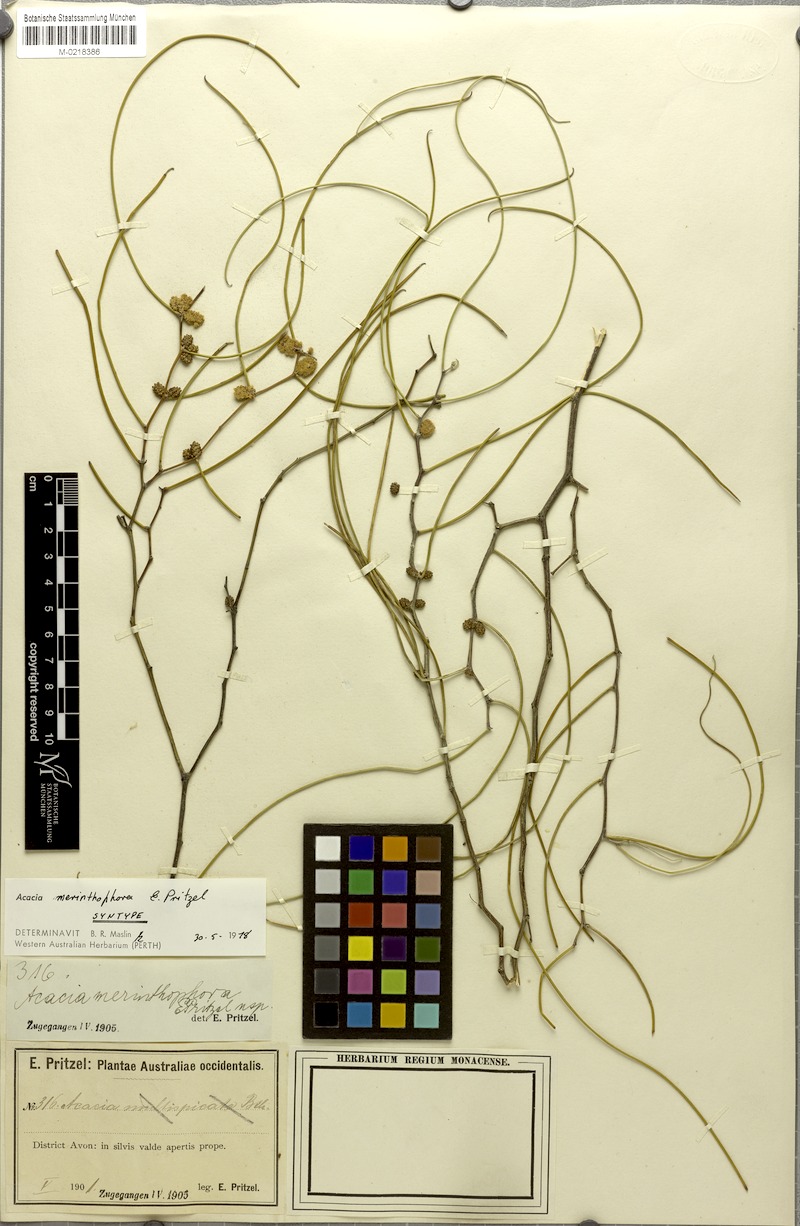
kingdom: Plantae
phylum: Tracheophyta
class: Magnoliopsida
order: Fabales
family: Fabaceae
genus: Acacia
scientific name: Acacia merinthophora
